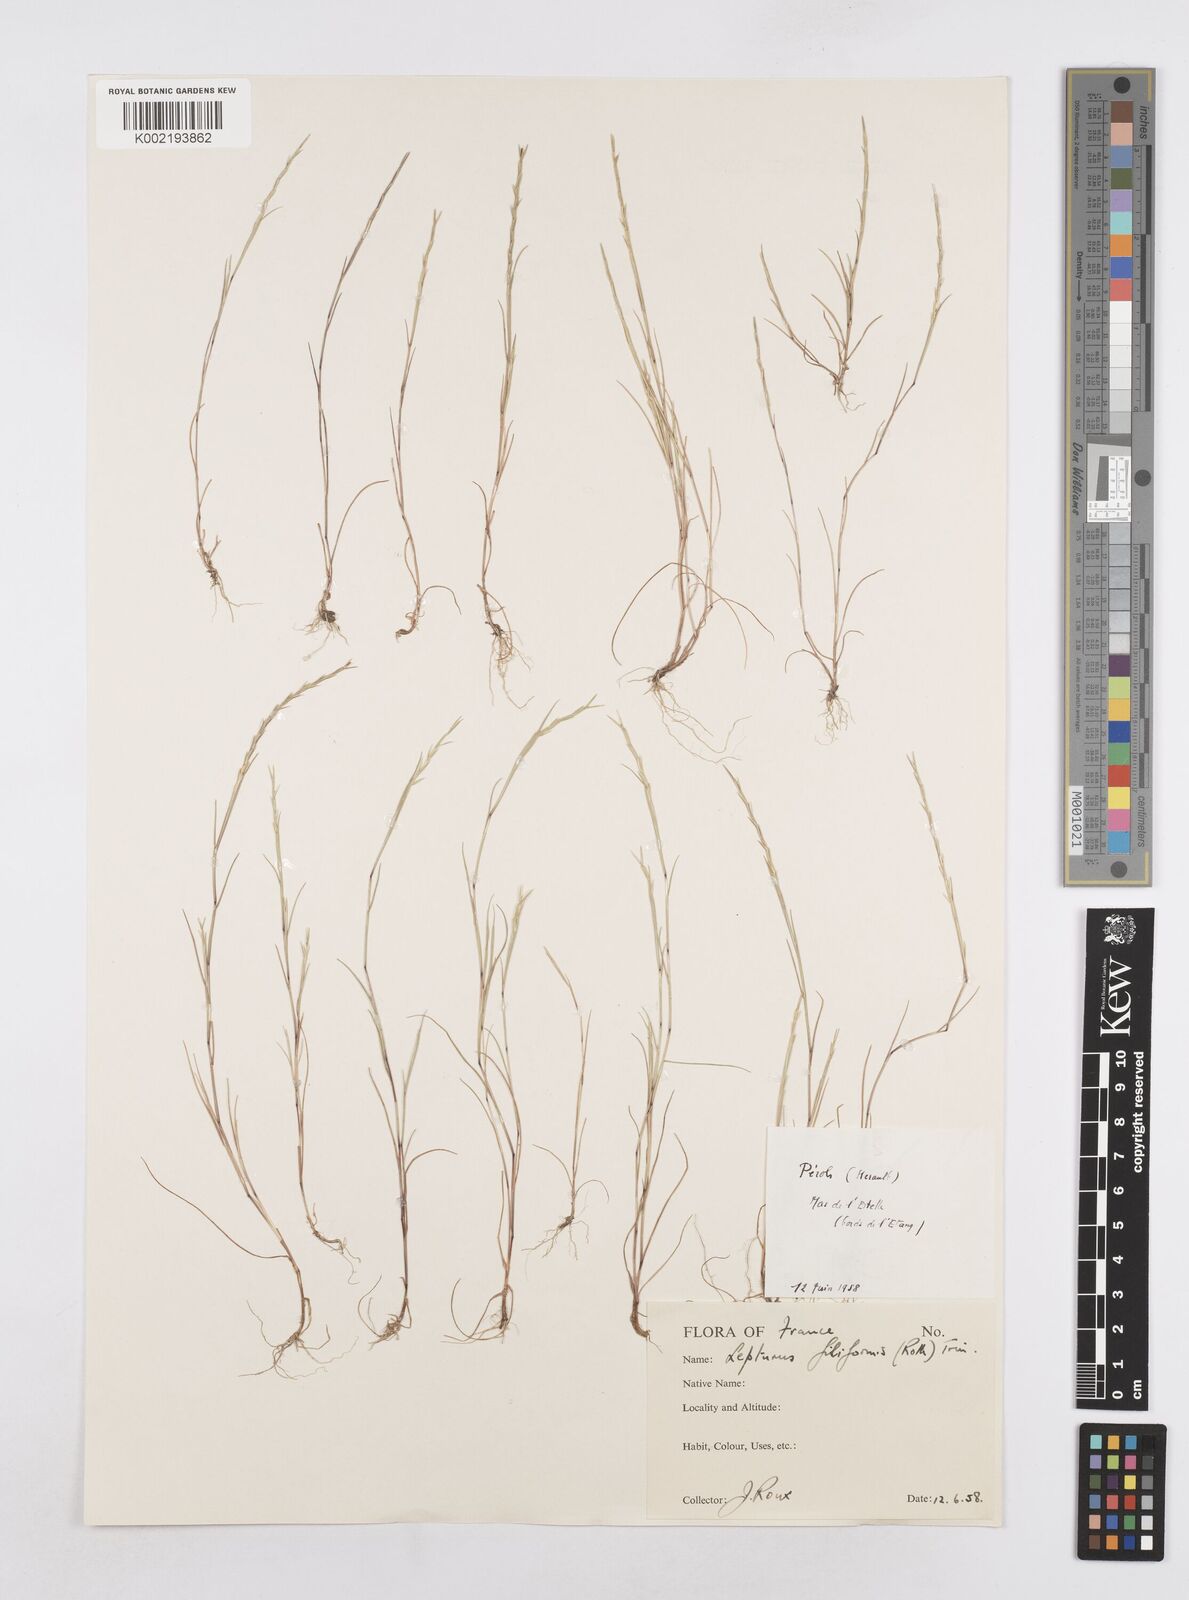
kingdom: Plantae
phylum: Tracheophyta
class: Liliopsida
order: Poales
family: Poaceae
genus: Parapholis
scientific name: Parapholis strigosa
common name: Hard-grass
